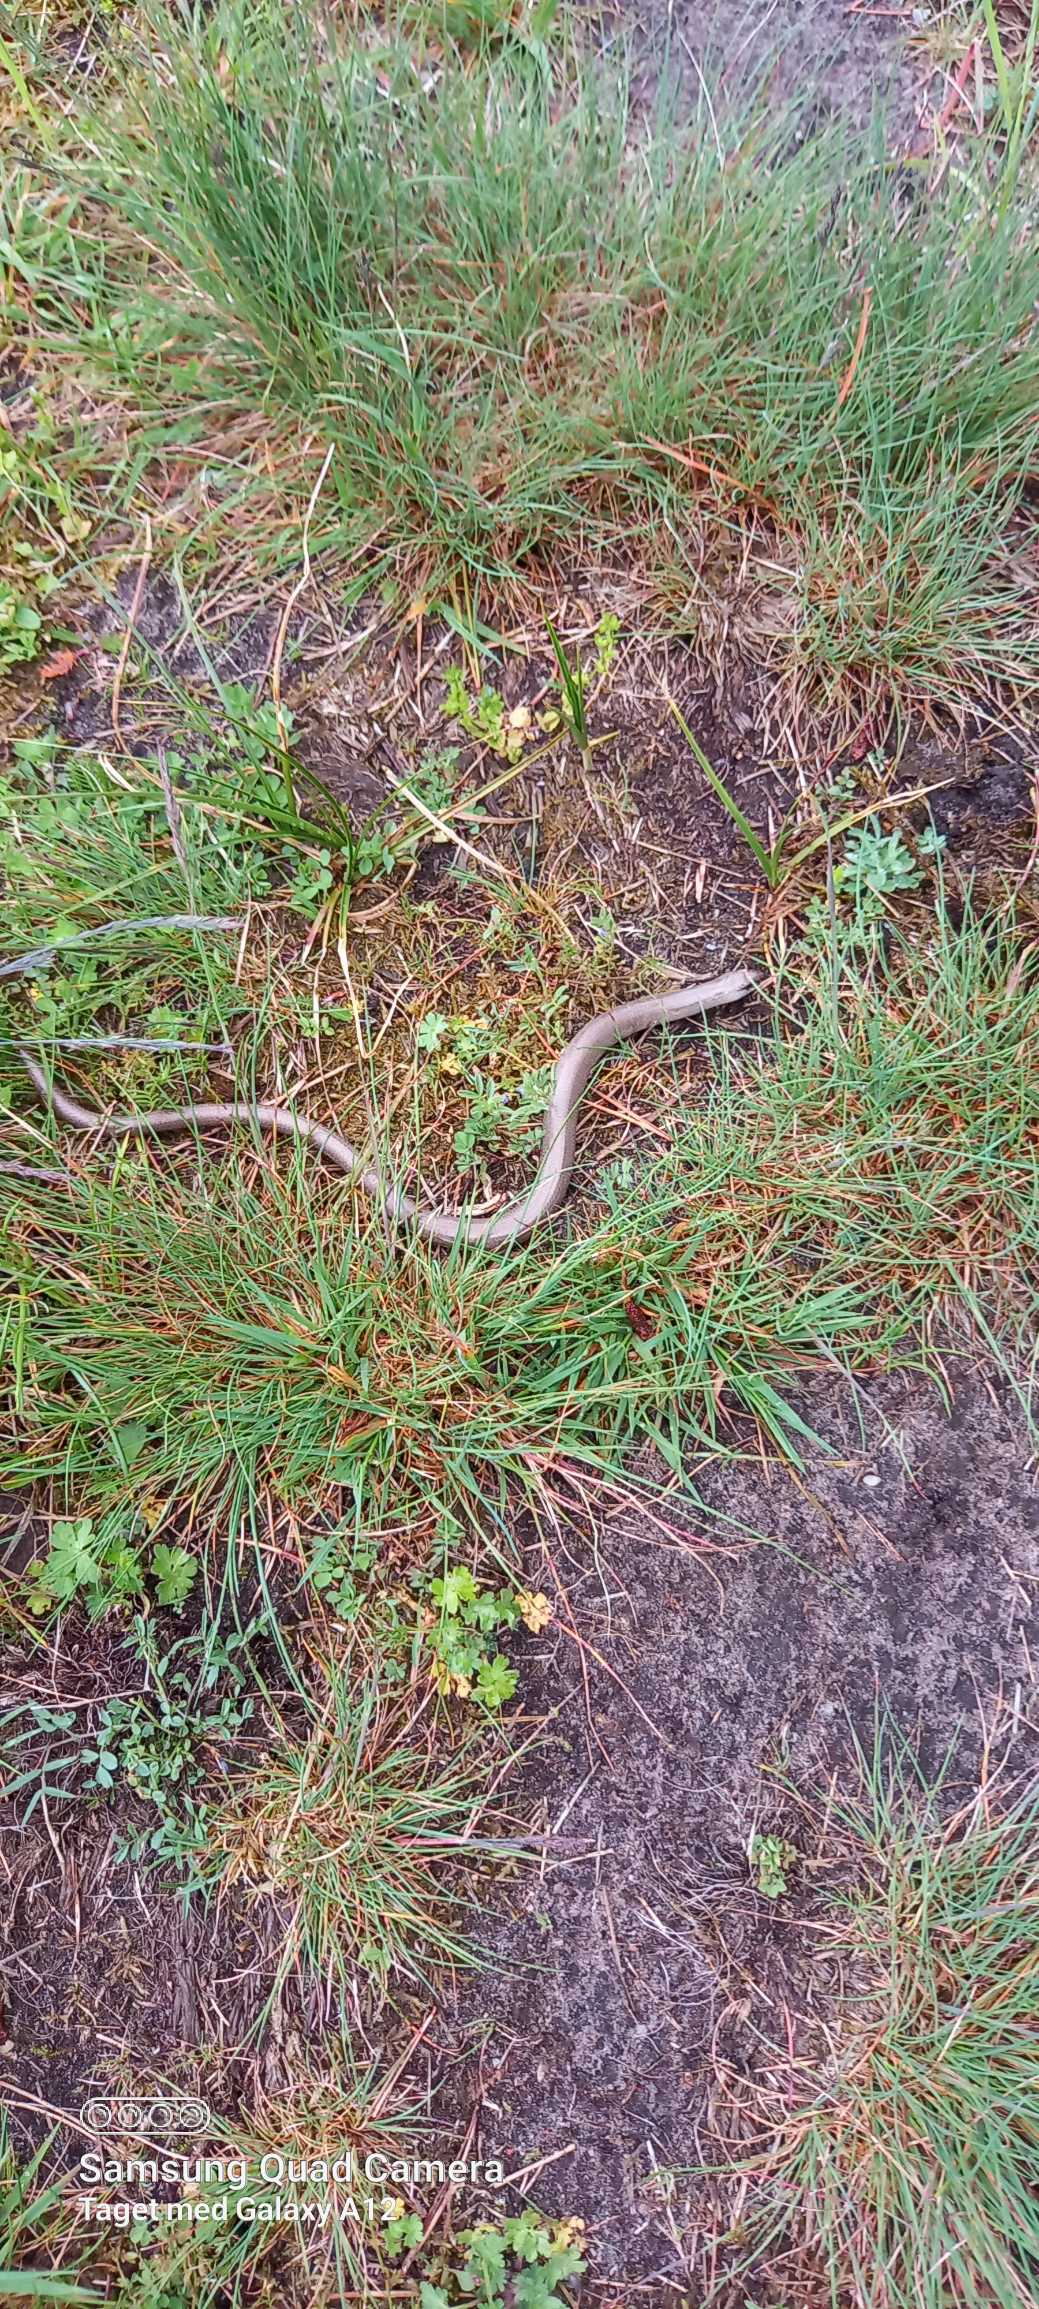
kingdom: Animalia
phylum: Chordata
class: Squamata
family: Anguidae
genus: Anguis
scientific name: Anguis fragilis
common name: Stålorm
